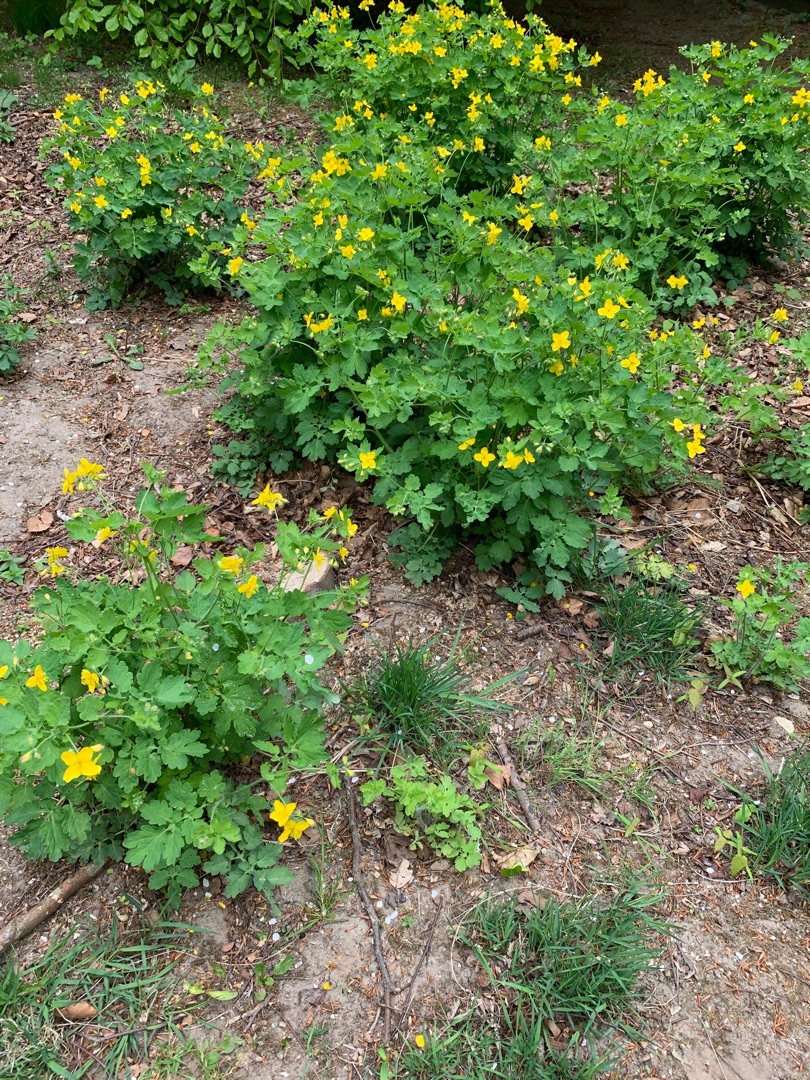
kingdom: Plantae
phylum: Tracheophyta
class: Magnoliopsida
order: Ranunculales
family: Papaveraceae
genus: Chelidonium
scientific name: Chelidonium majus
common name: Svaleurt
